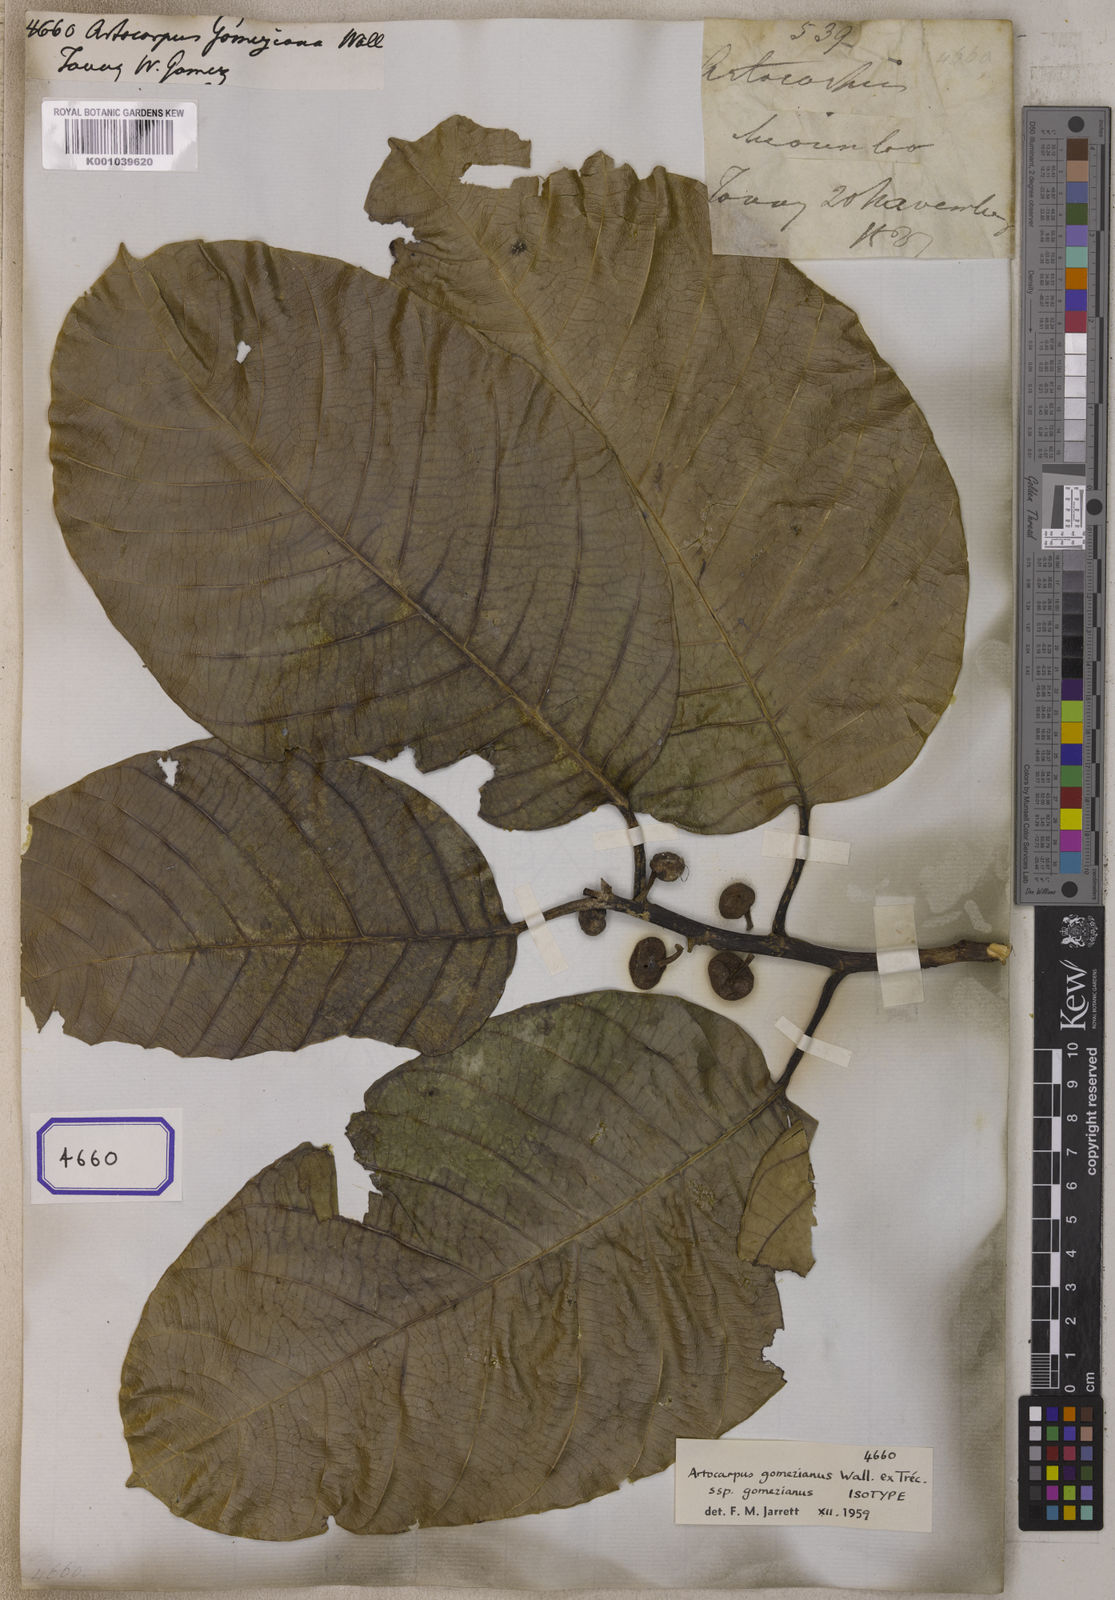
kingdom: Plantae
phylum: Tracheophyta
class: Magnoliopsida
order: Rosales
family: Moraceae
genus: Artocarpus
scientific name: Artocarpus
